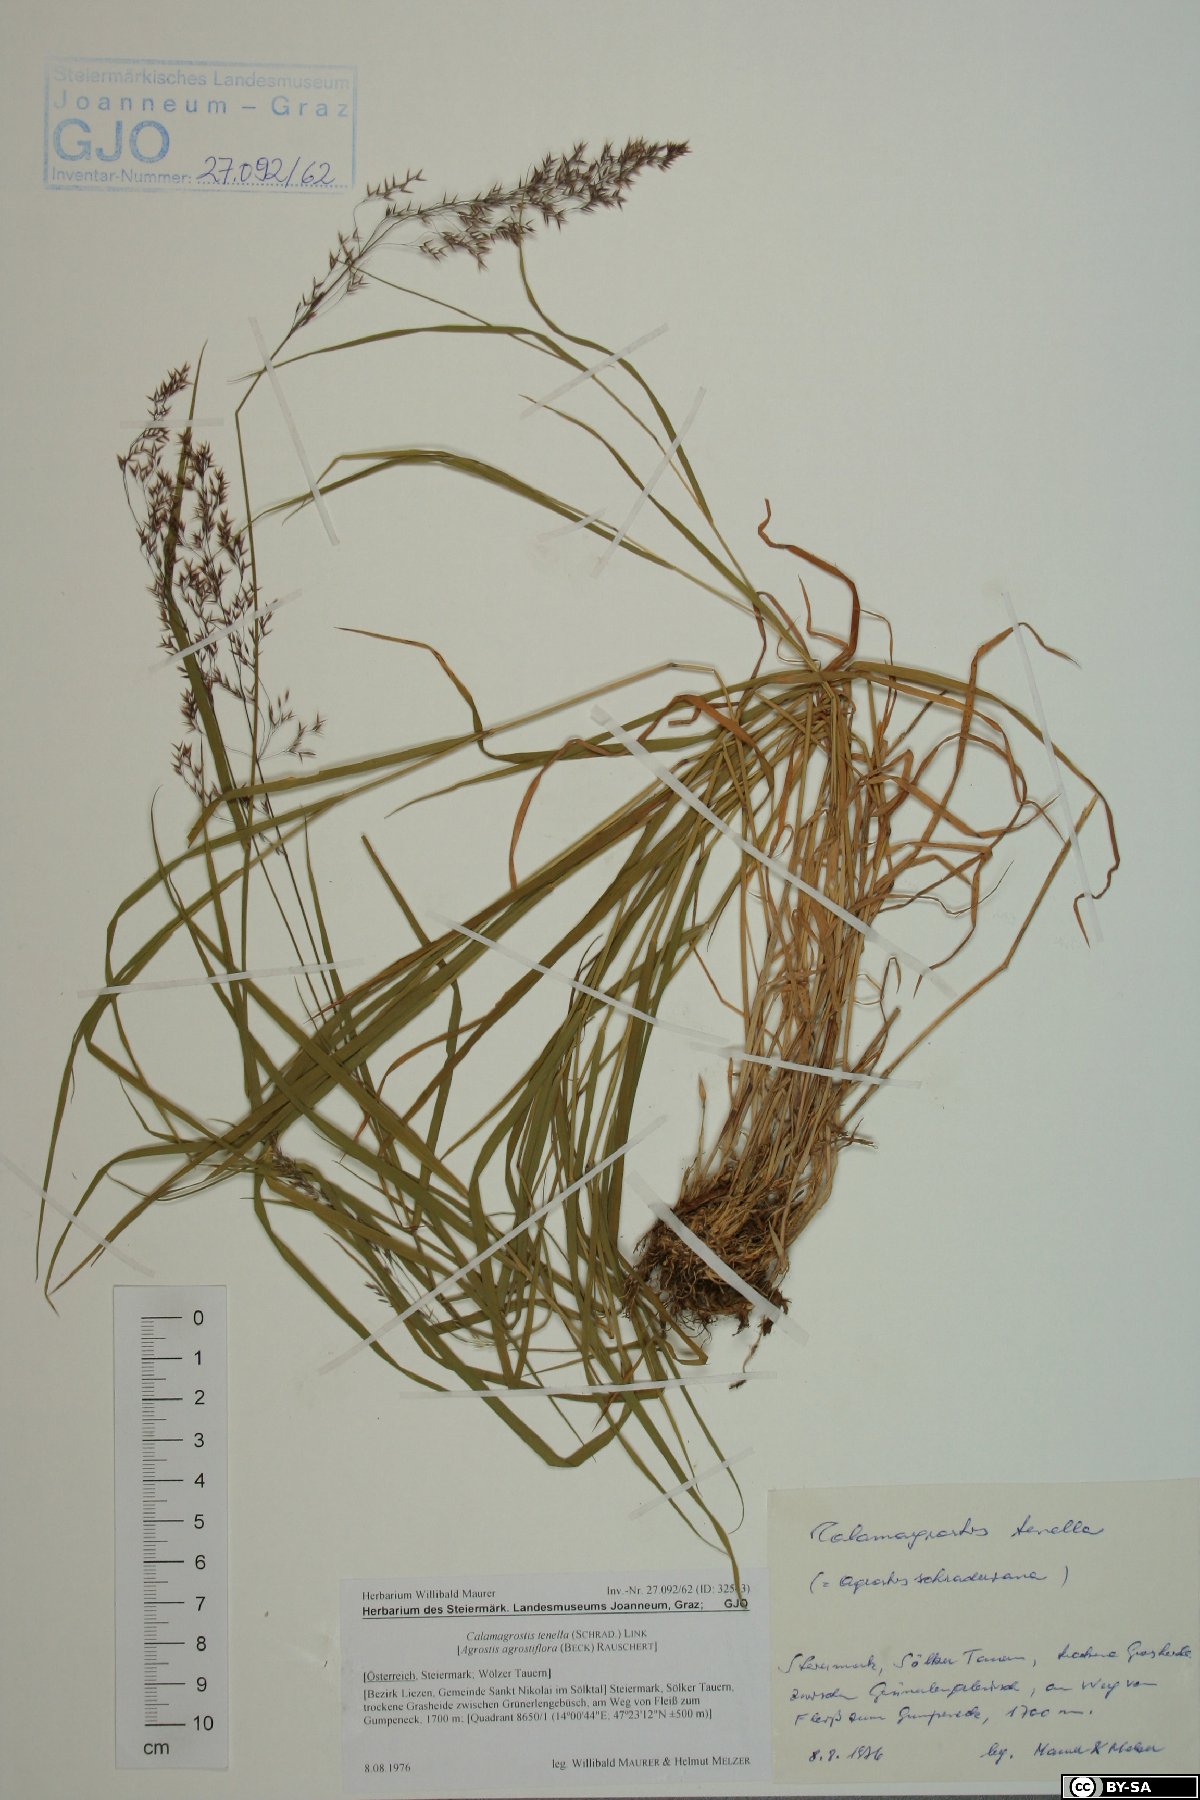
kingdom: Plantae
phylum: Tracheophyta
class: Liliopsida
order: Poales
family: Poaceae
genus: Agrostis
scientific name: Agrostis schraderiana
